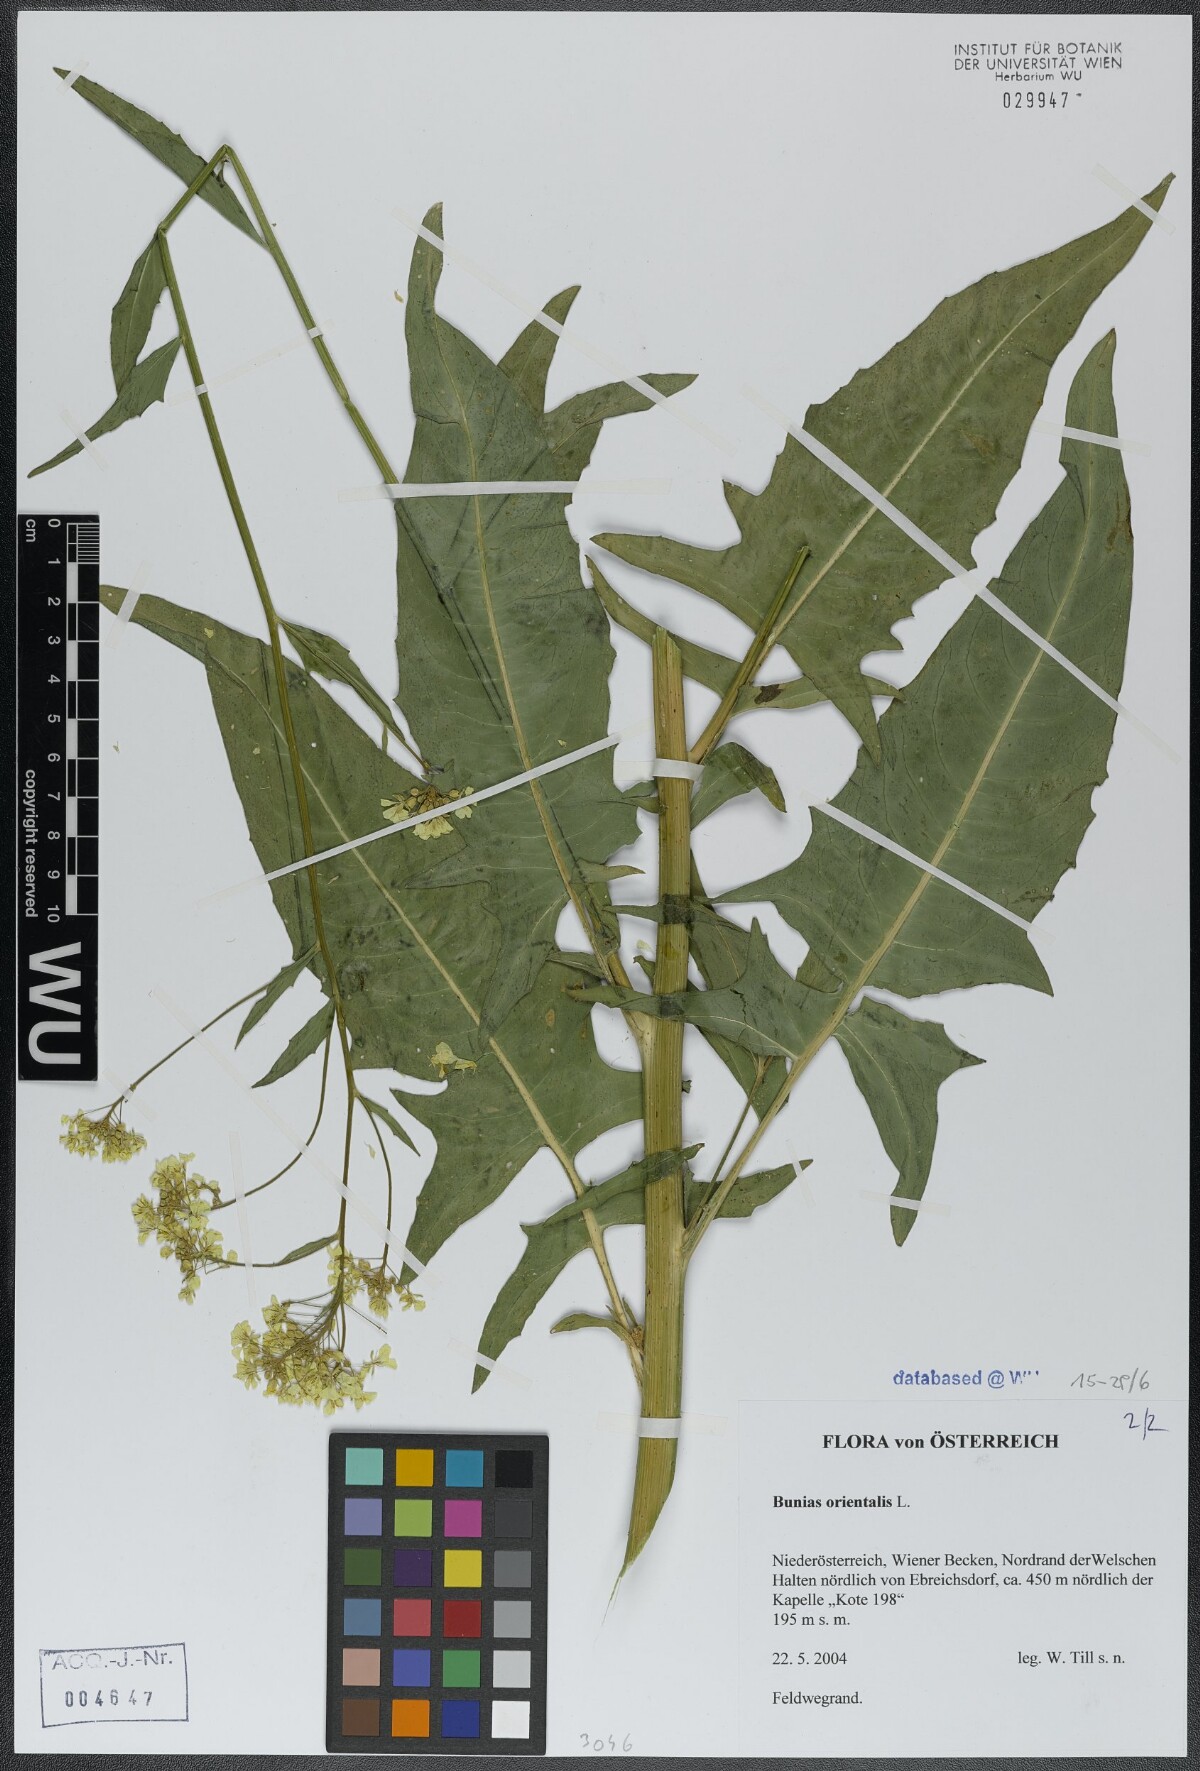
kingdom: Plantae
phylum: Tracheophyta
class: Magnoliopsida
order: Brassicales
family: Brassicaceae
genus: Bunias
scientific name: Bunias orientalis
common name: Warty-cabbage
